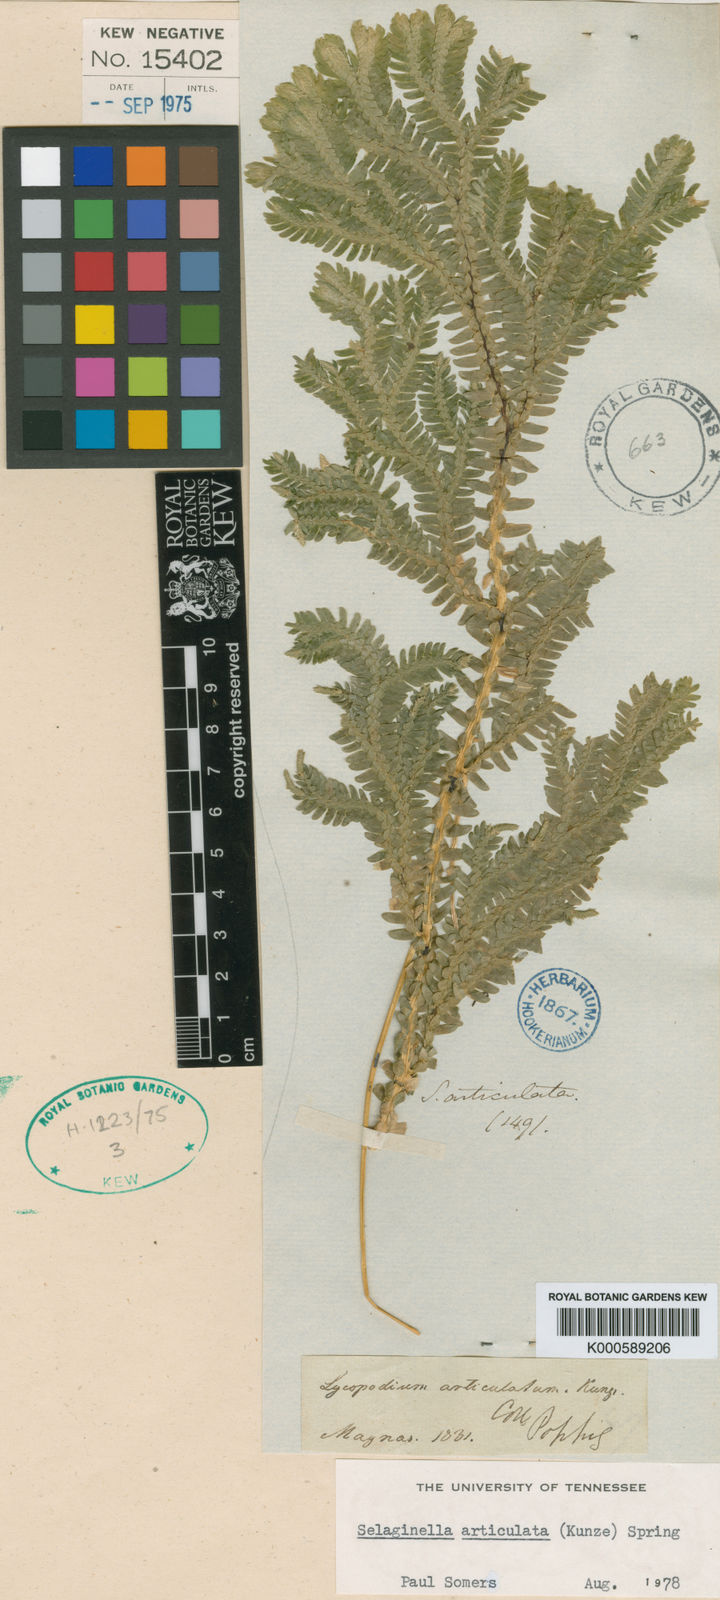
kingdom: Plantae
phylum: Tracheophyta
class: Lycopodiopsida
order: Selaginellales
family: Selaginellaceae
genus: Selaginella
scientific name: Selaginella articulata
